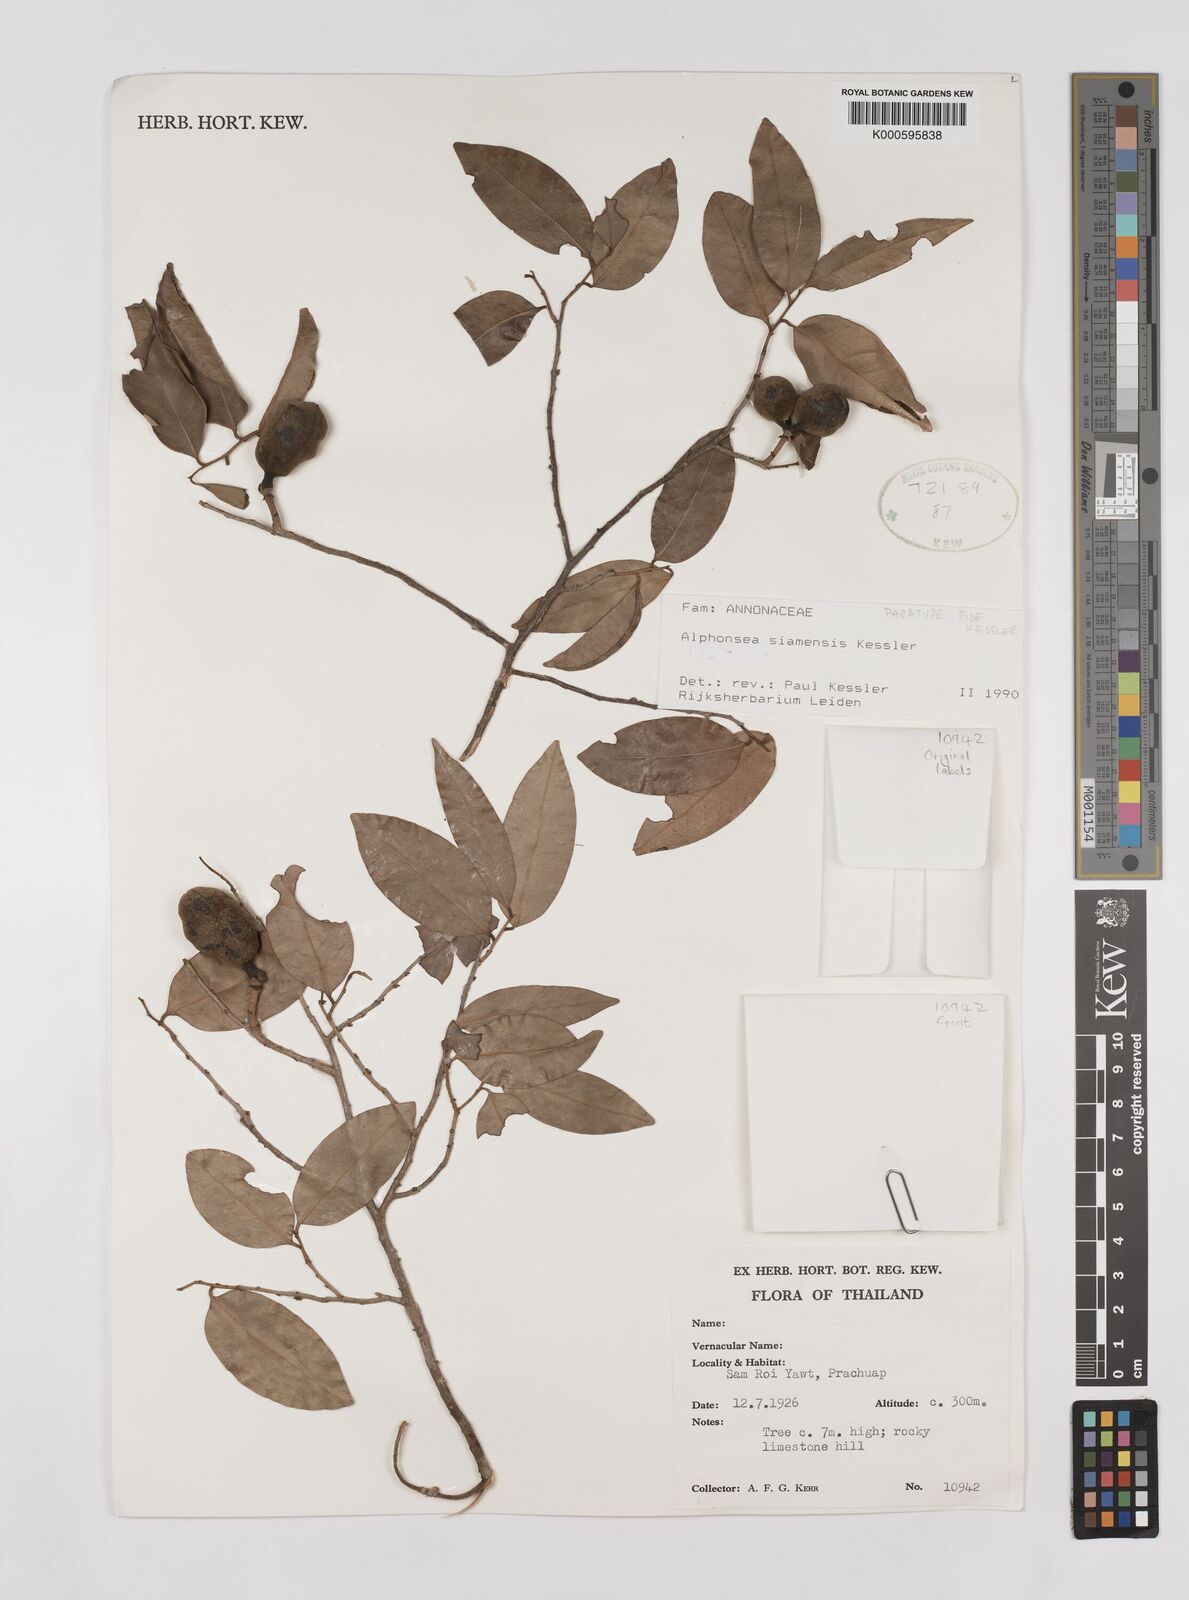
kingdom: Plantae
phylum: Tracheophyta
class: Magnoliopsida
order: Magnoliales
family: Annonaceae
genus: Alphonsea
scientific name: Alphonsea siamensis
